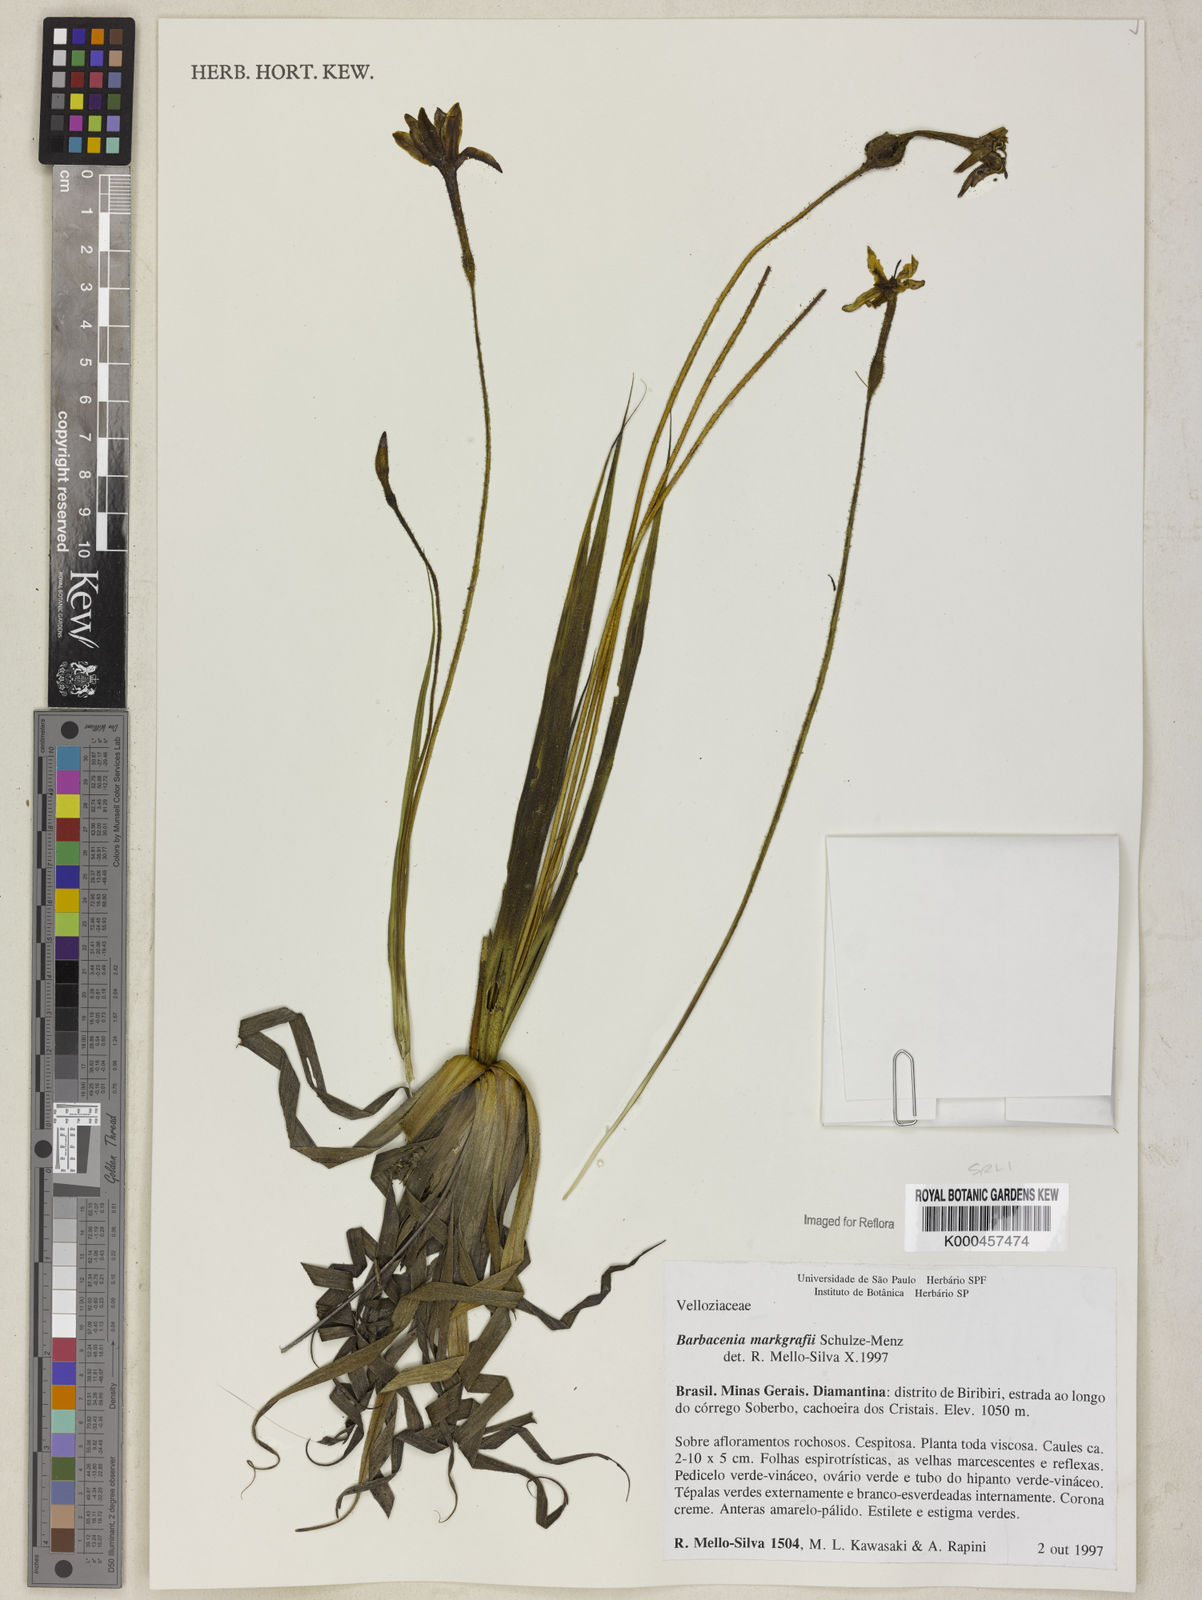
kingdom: Plantae
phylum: Tracheophyta
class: Liliopsida
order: Pandanales
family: Velloziaceae
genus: Barbacenia
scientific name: Barbacenia markgrafii
